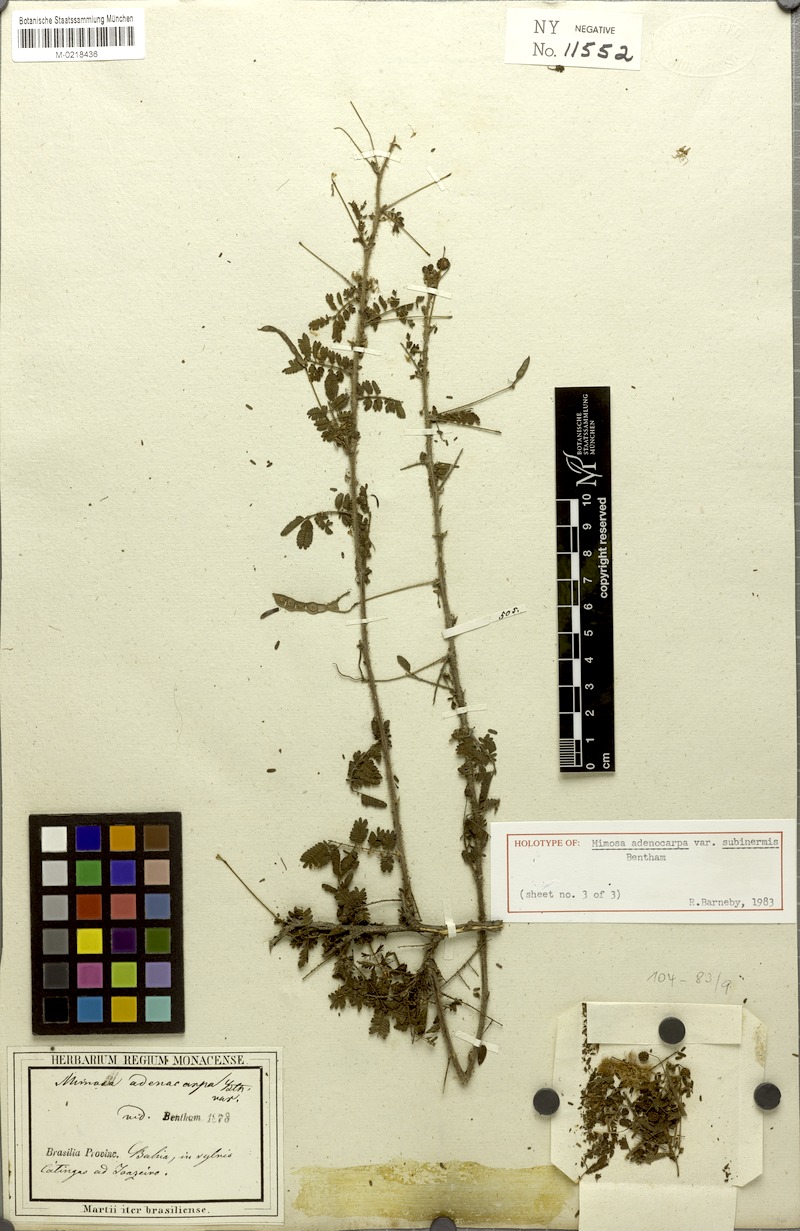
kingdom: Plantae
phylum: Tracheophyta
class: Magnoliopsida
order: Fabales
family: Fabaceae
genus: Mimosa
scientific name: Mimosa misera
